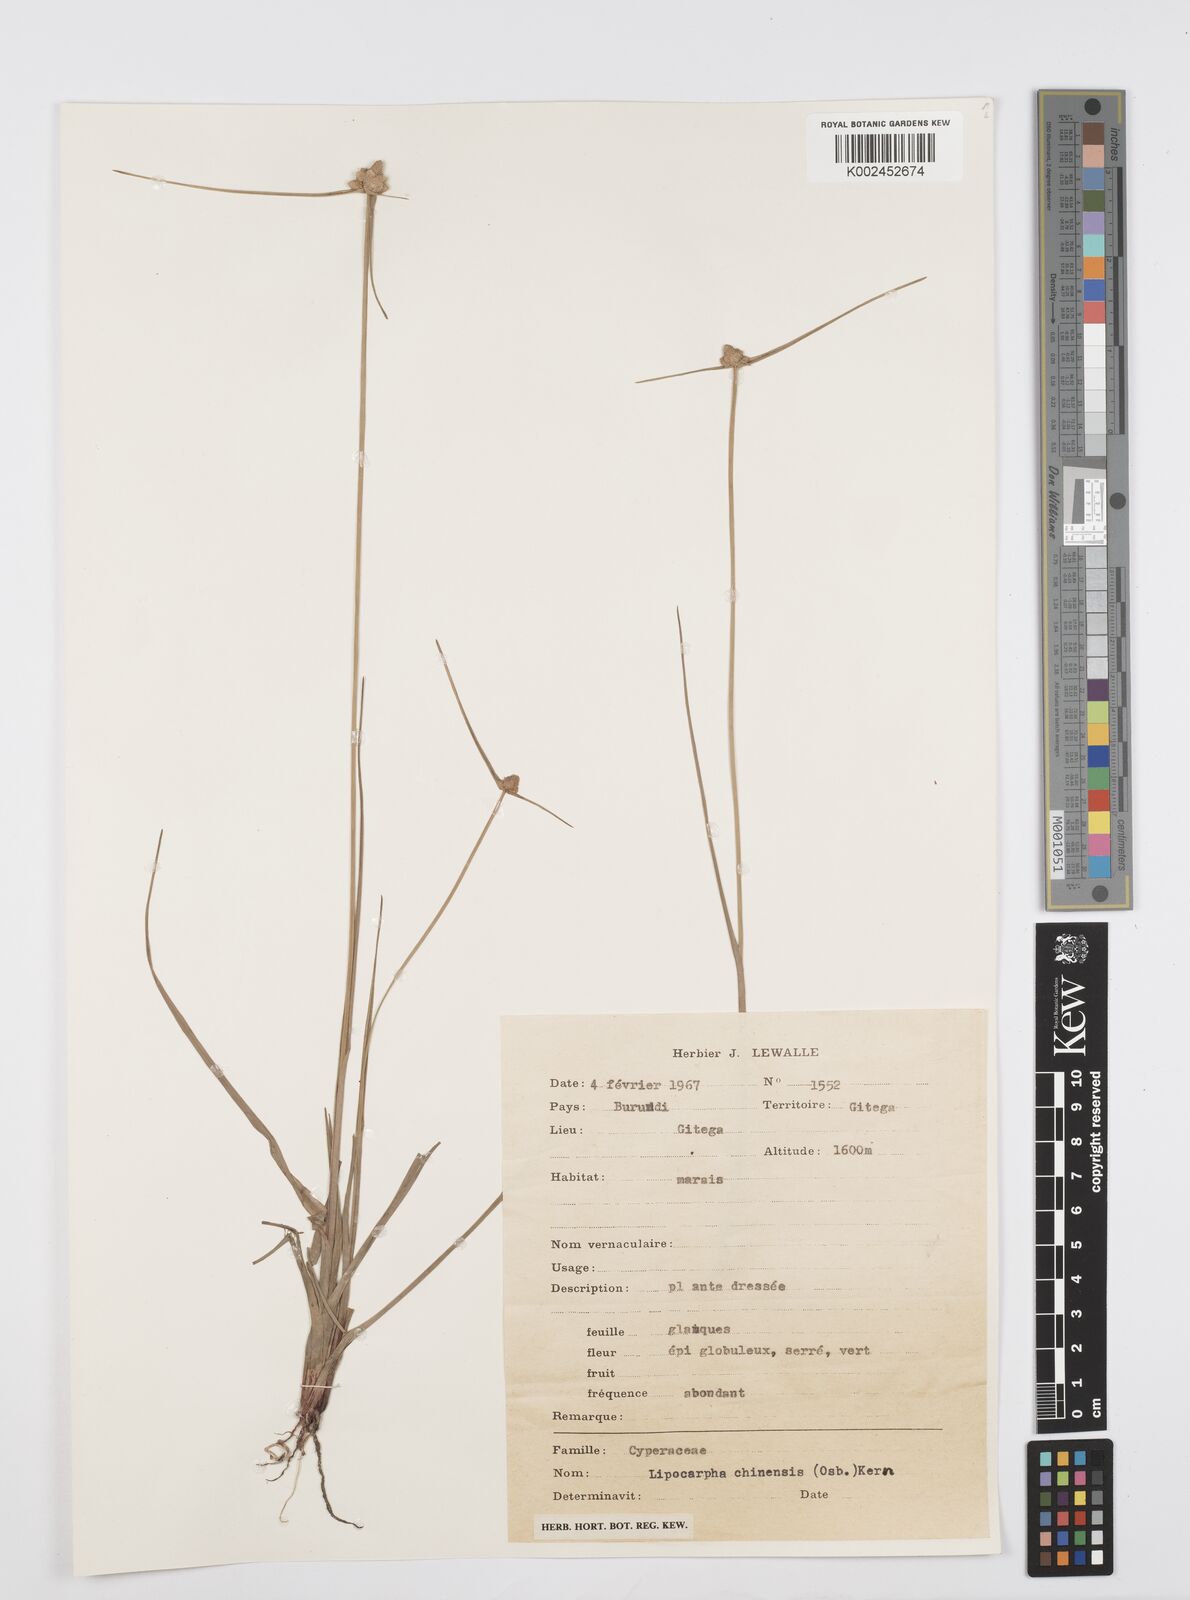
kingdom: Plantae
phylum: Tracheophyta
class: Liliopsida
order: Poales
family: Cyperaceae
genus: Cyperus
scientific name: Cyperus albescens
